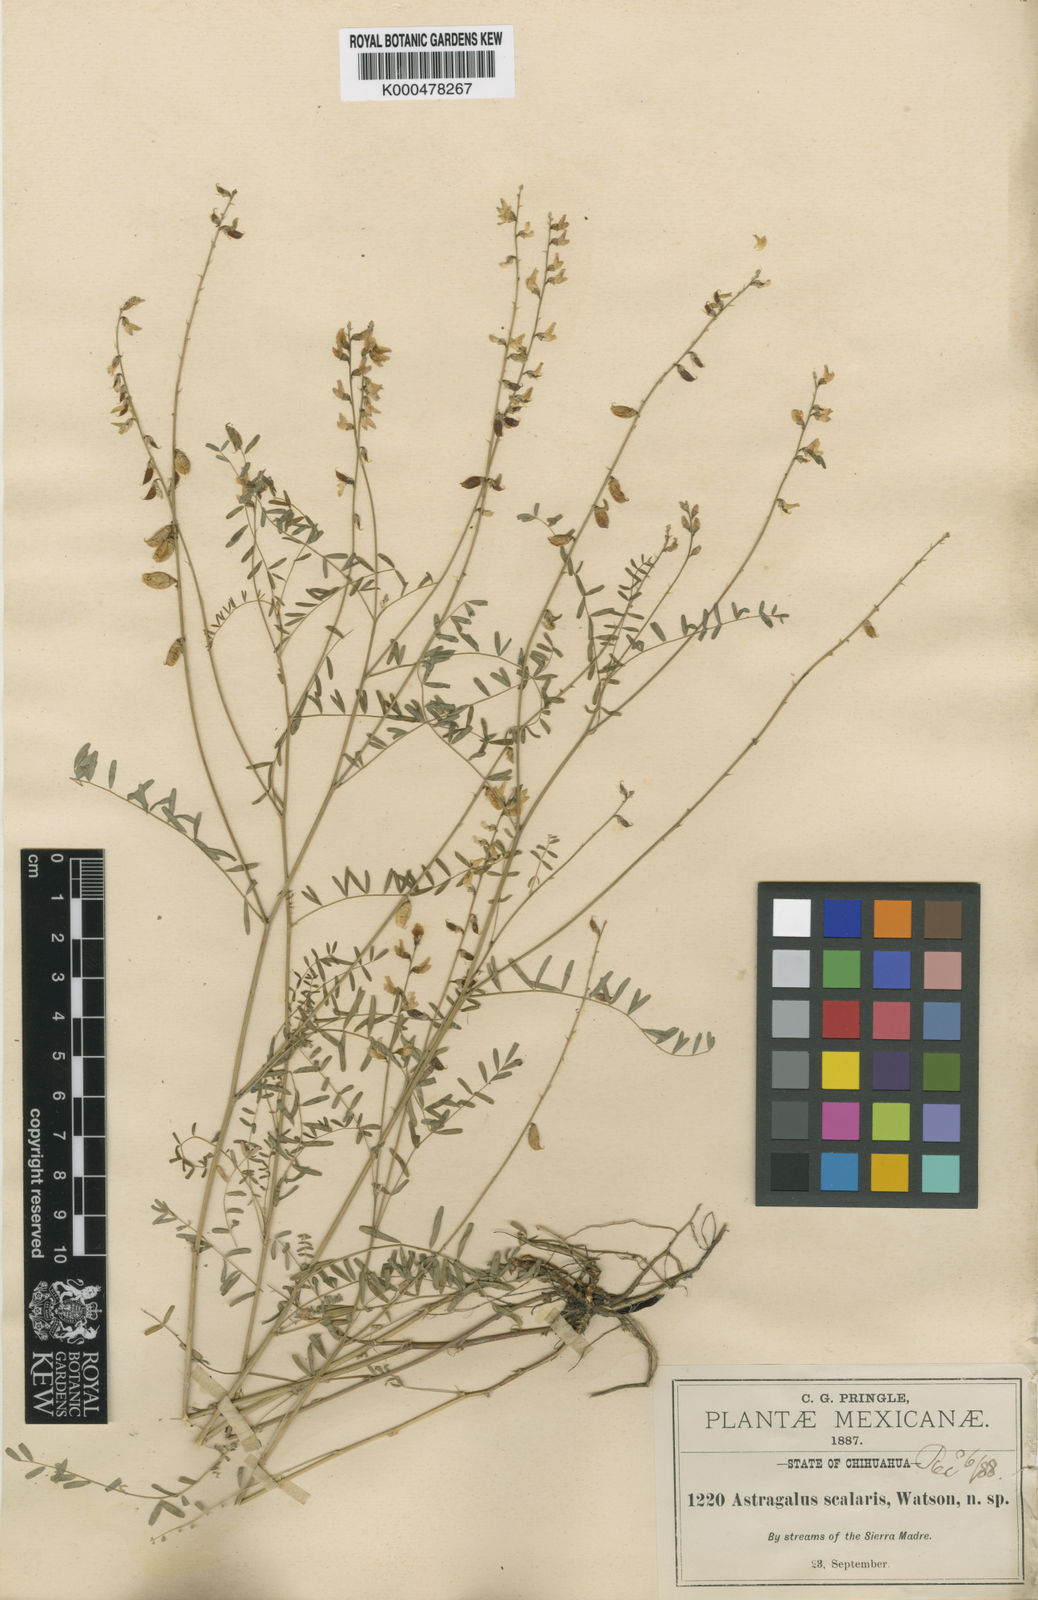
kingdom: Plantae
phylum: Tracheophyta
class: Magnoliopsida
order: Fabales
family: Fabaceae
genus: Astragalus
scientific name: Astragalus scalaris
